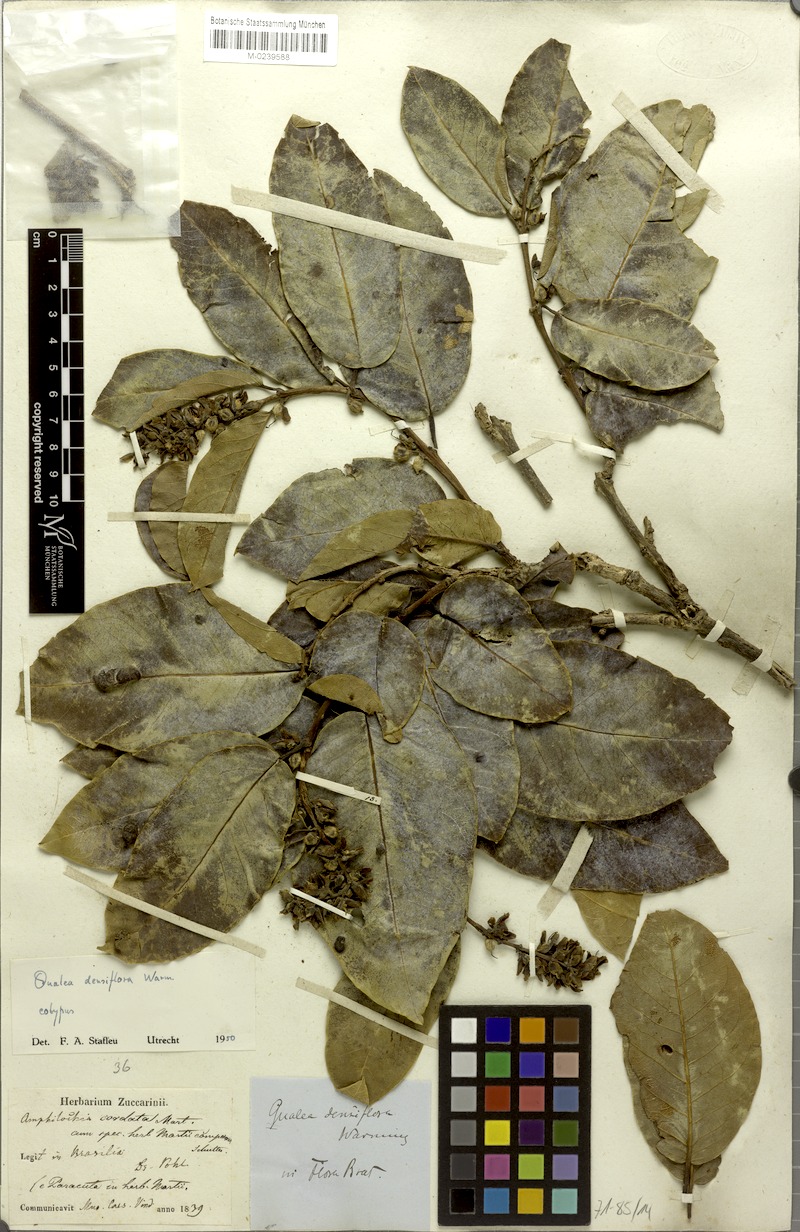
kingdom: Plantae
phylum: Tracheophyta
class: Magnoliopsida
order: Myrtales
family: Vochysiaceae
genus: Qualea
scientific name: Qualea densiflora
